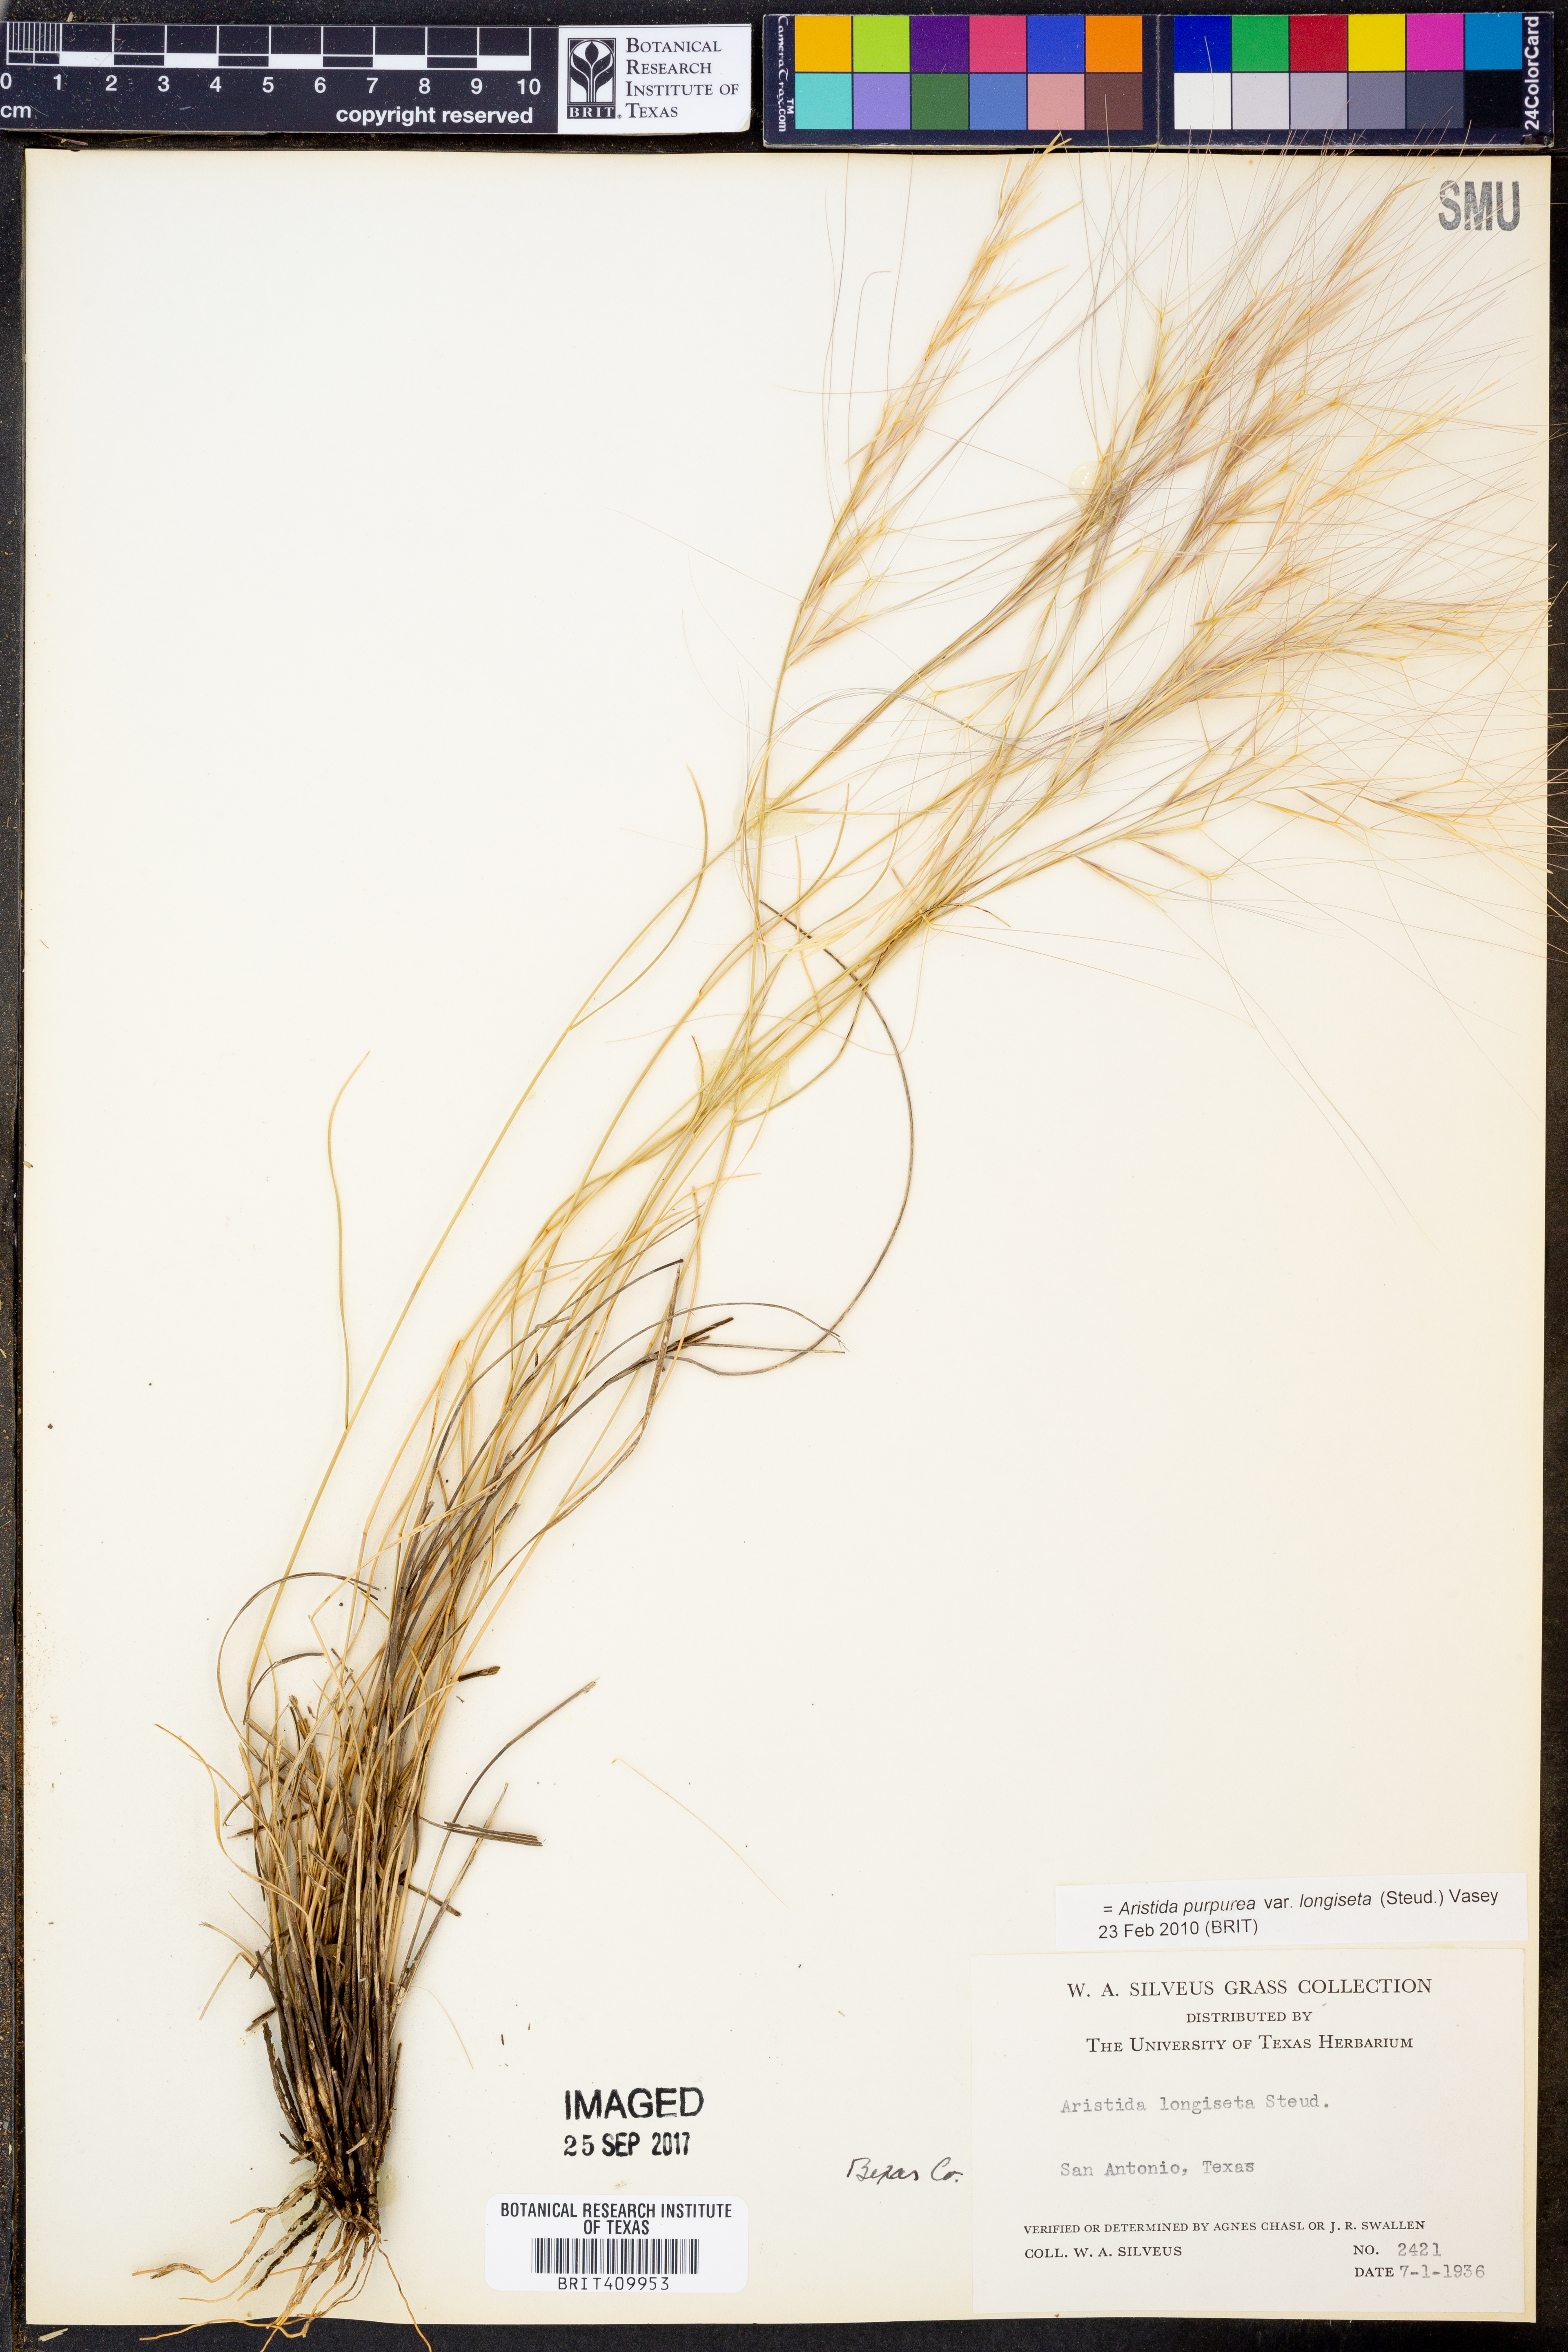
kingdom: Plantae
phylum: Tracheophyta
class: Liliopsida
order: Poales
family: Poaceae
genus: Aristida
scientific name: Aristida longiseta
